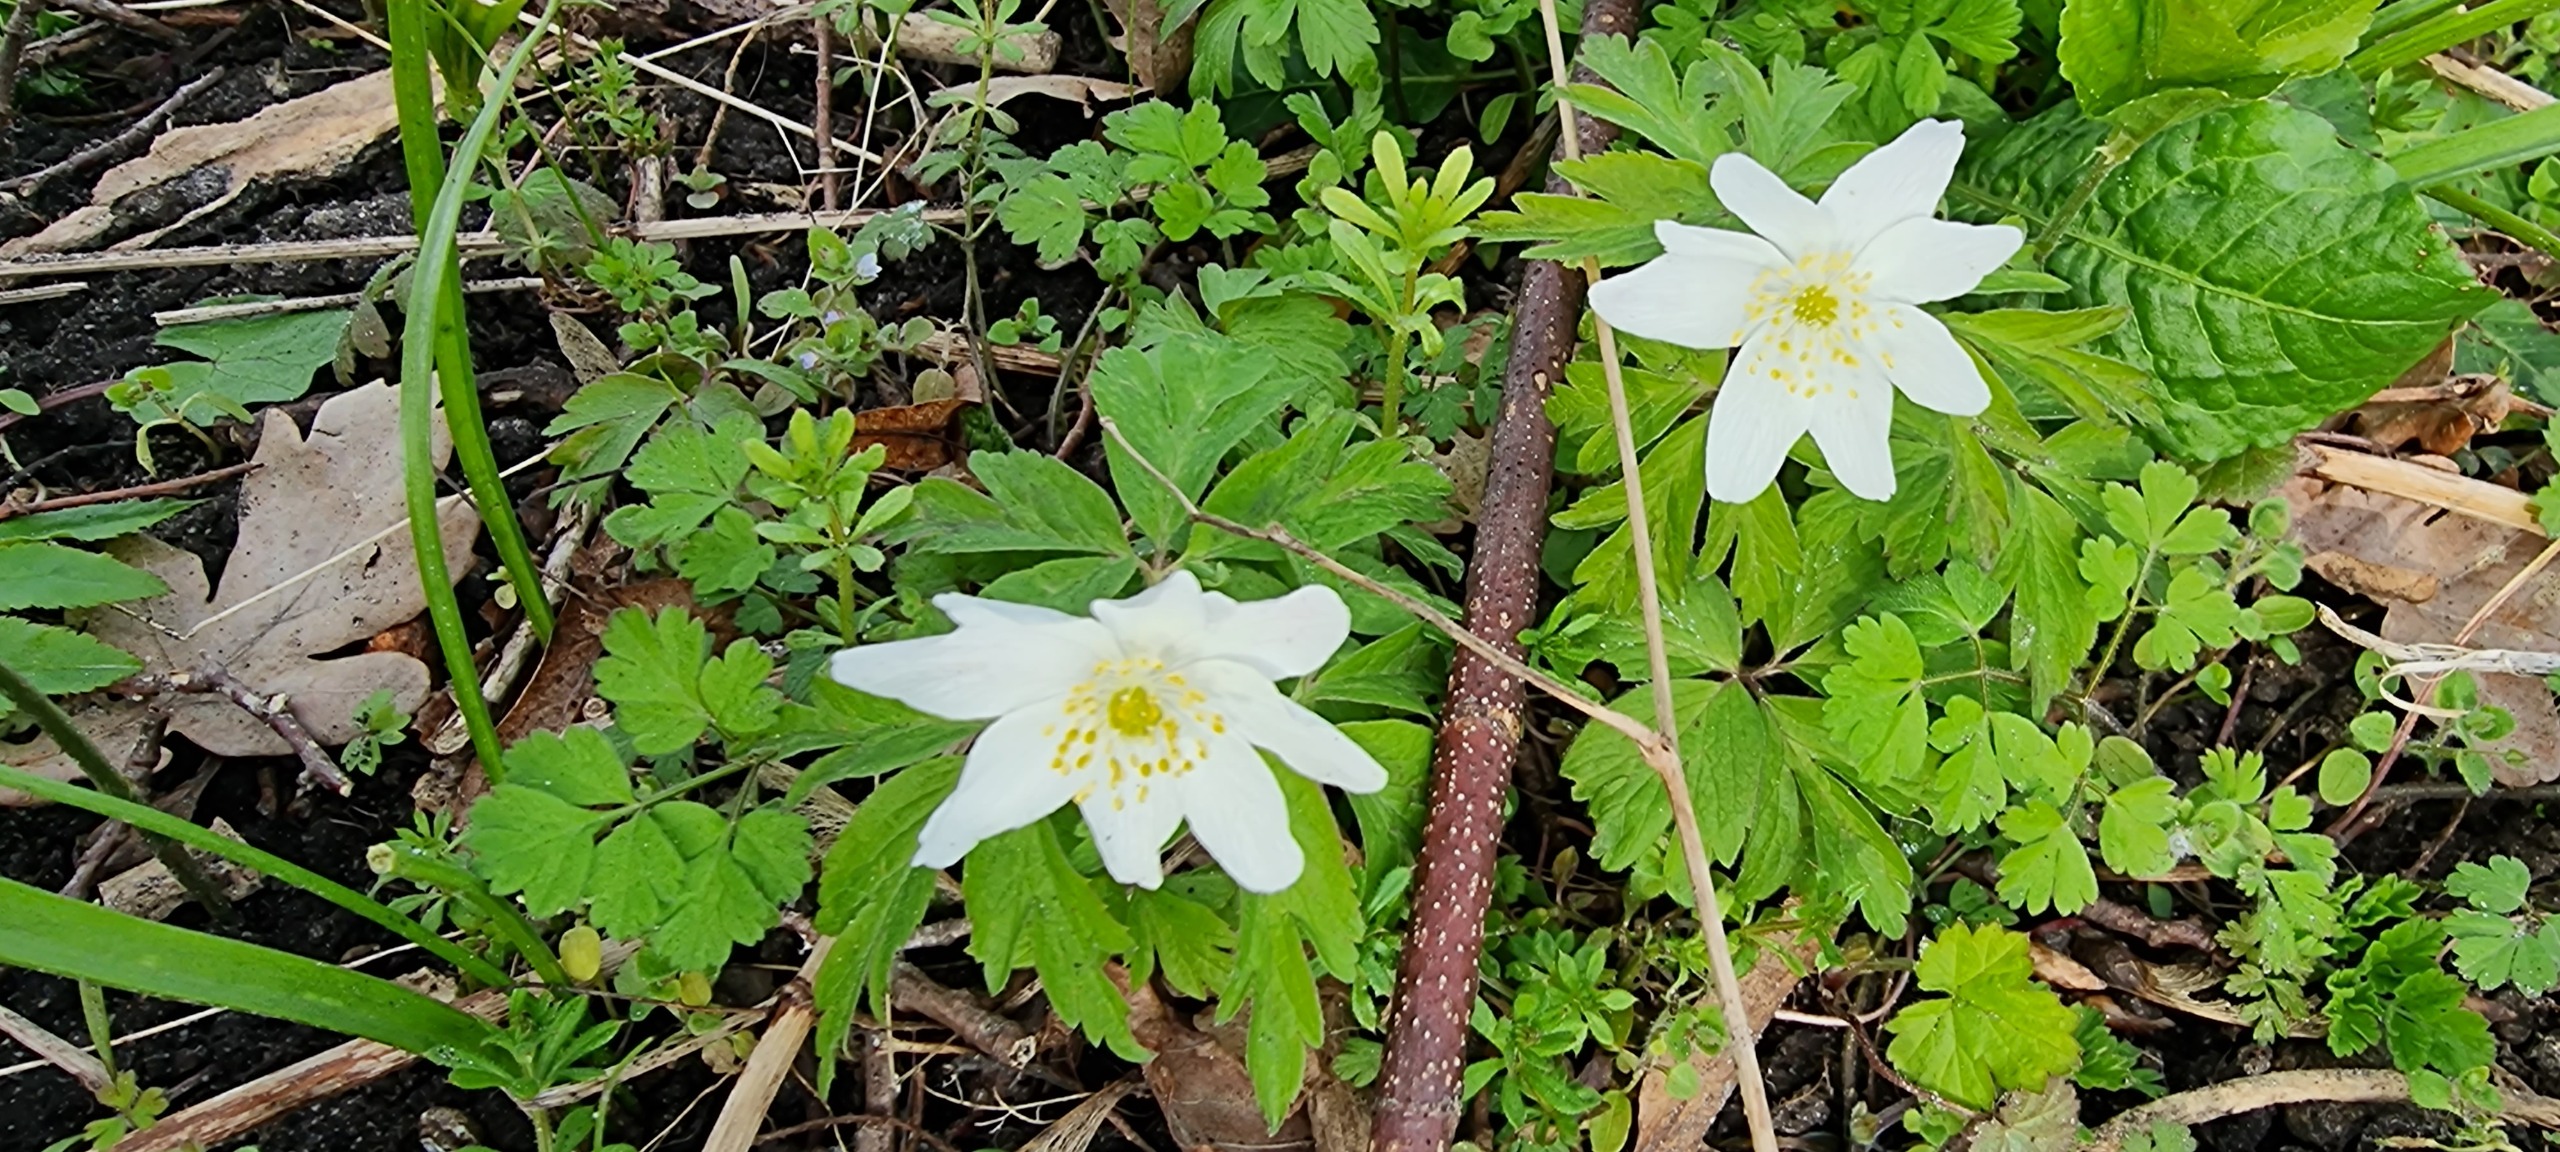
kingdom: Plantae
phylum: Tracheophyta
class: Magnoliopsida
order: Ranunculales
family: Ranunculaceae
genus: Anemone
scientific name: Anemone nemorosa
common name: Hvid anemone
